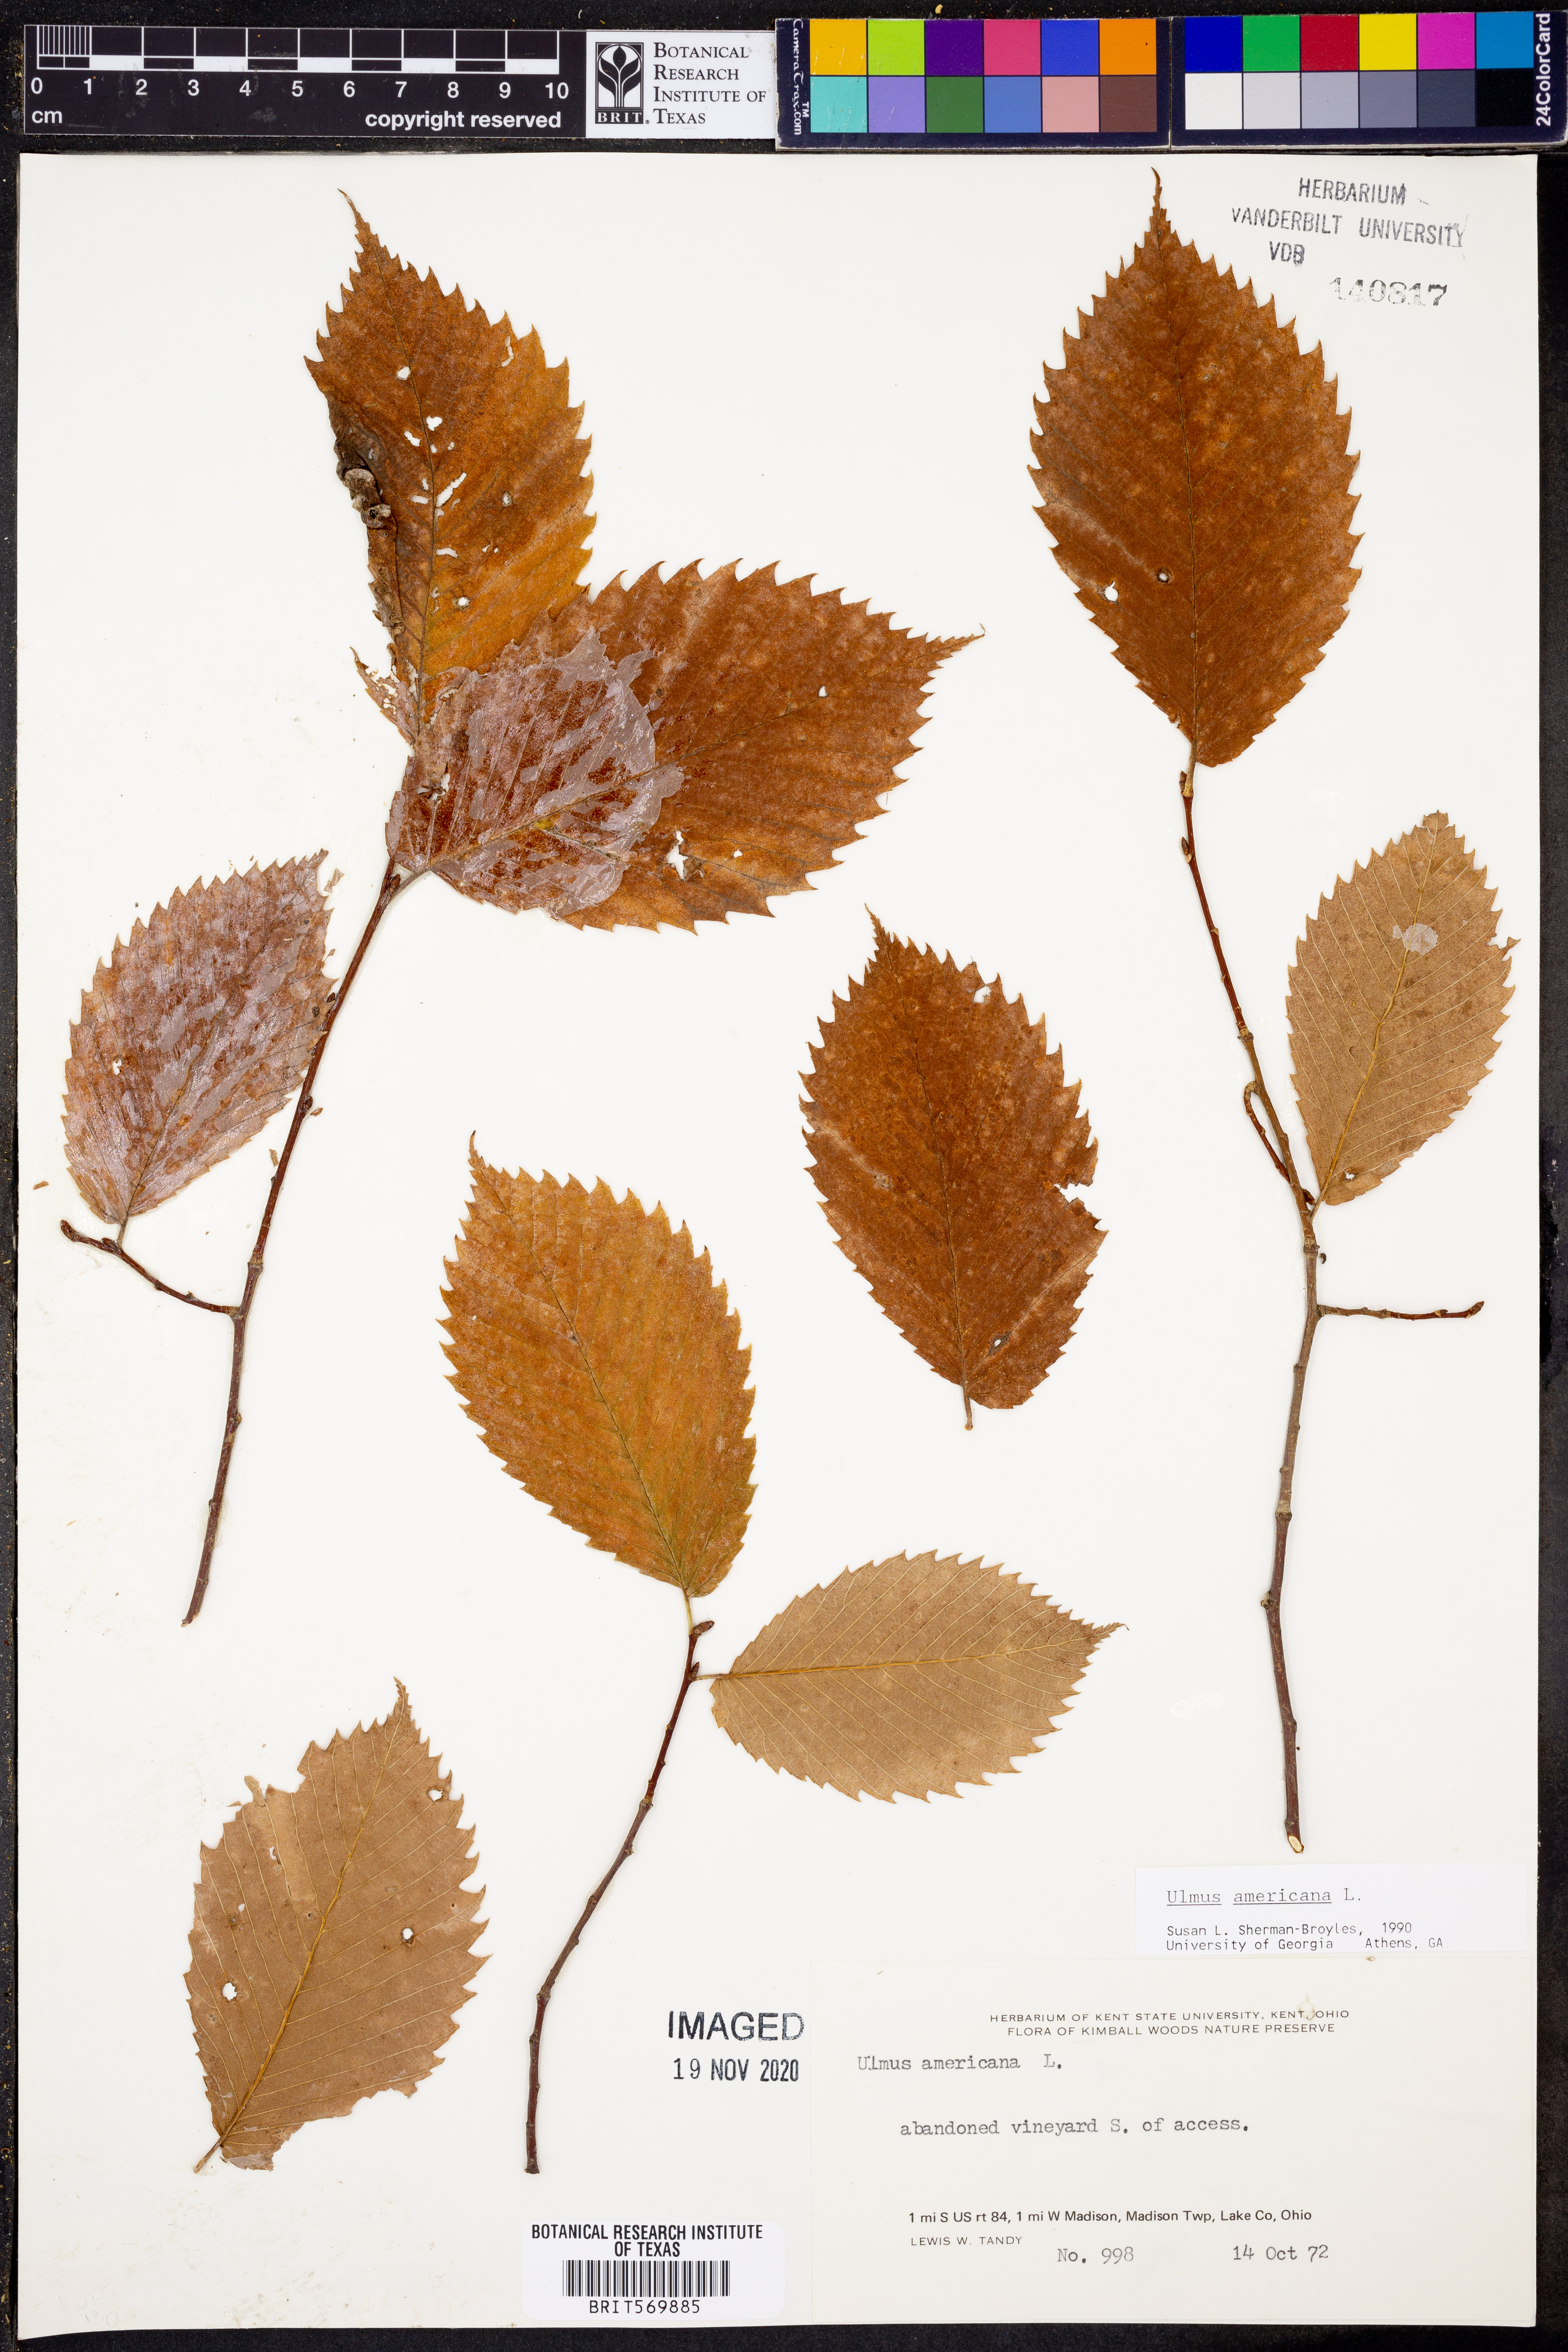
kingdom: Plantae
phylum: Tracheophyta
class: Magnoliopsida
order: Rosales
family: Ulmaceae
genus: Ulmus
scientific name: Ulmus americana
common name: American elm
